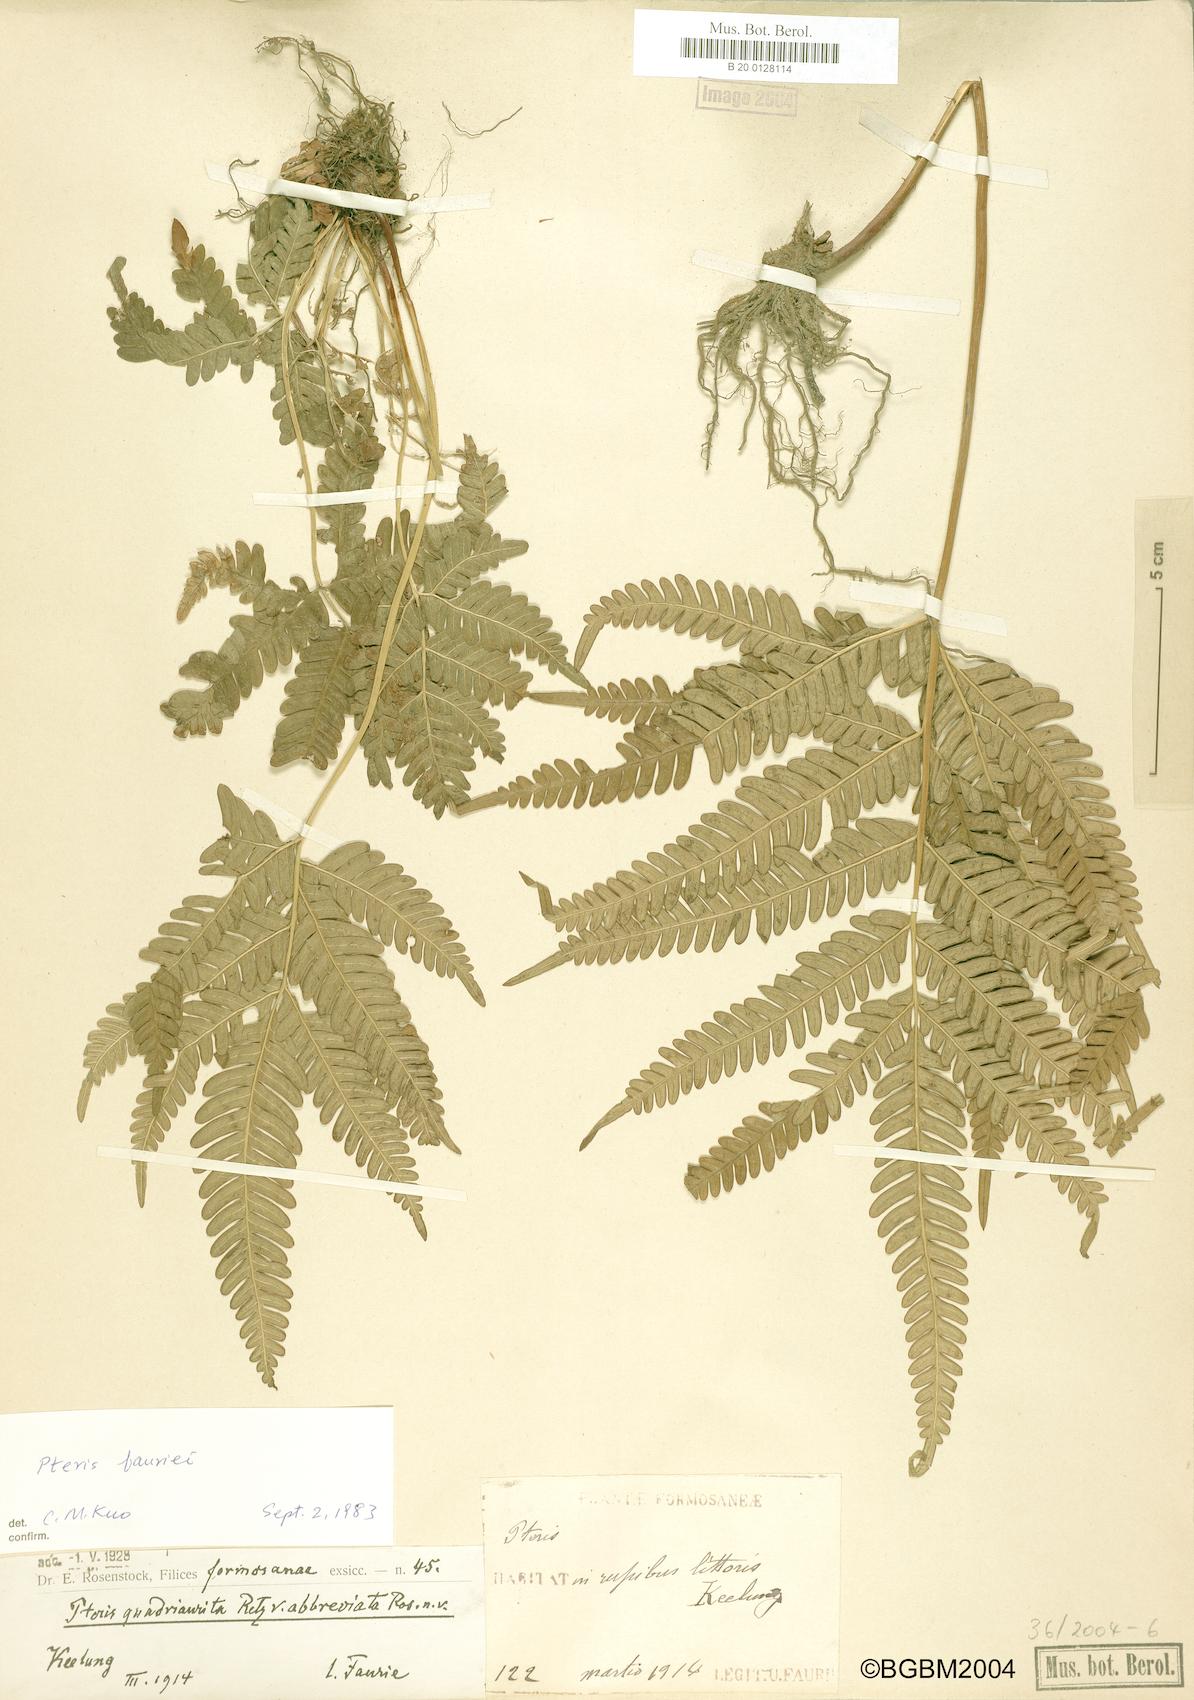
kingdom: Plantae
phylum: Tracheophyta
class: Polypodiopsida
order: Polypodiales
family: Pteridaceae
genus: Pteris
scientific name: Pteris minor
